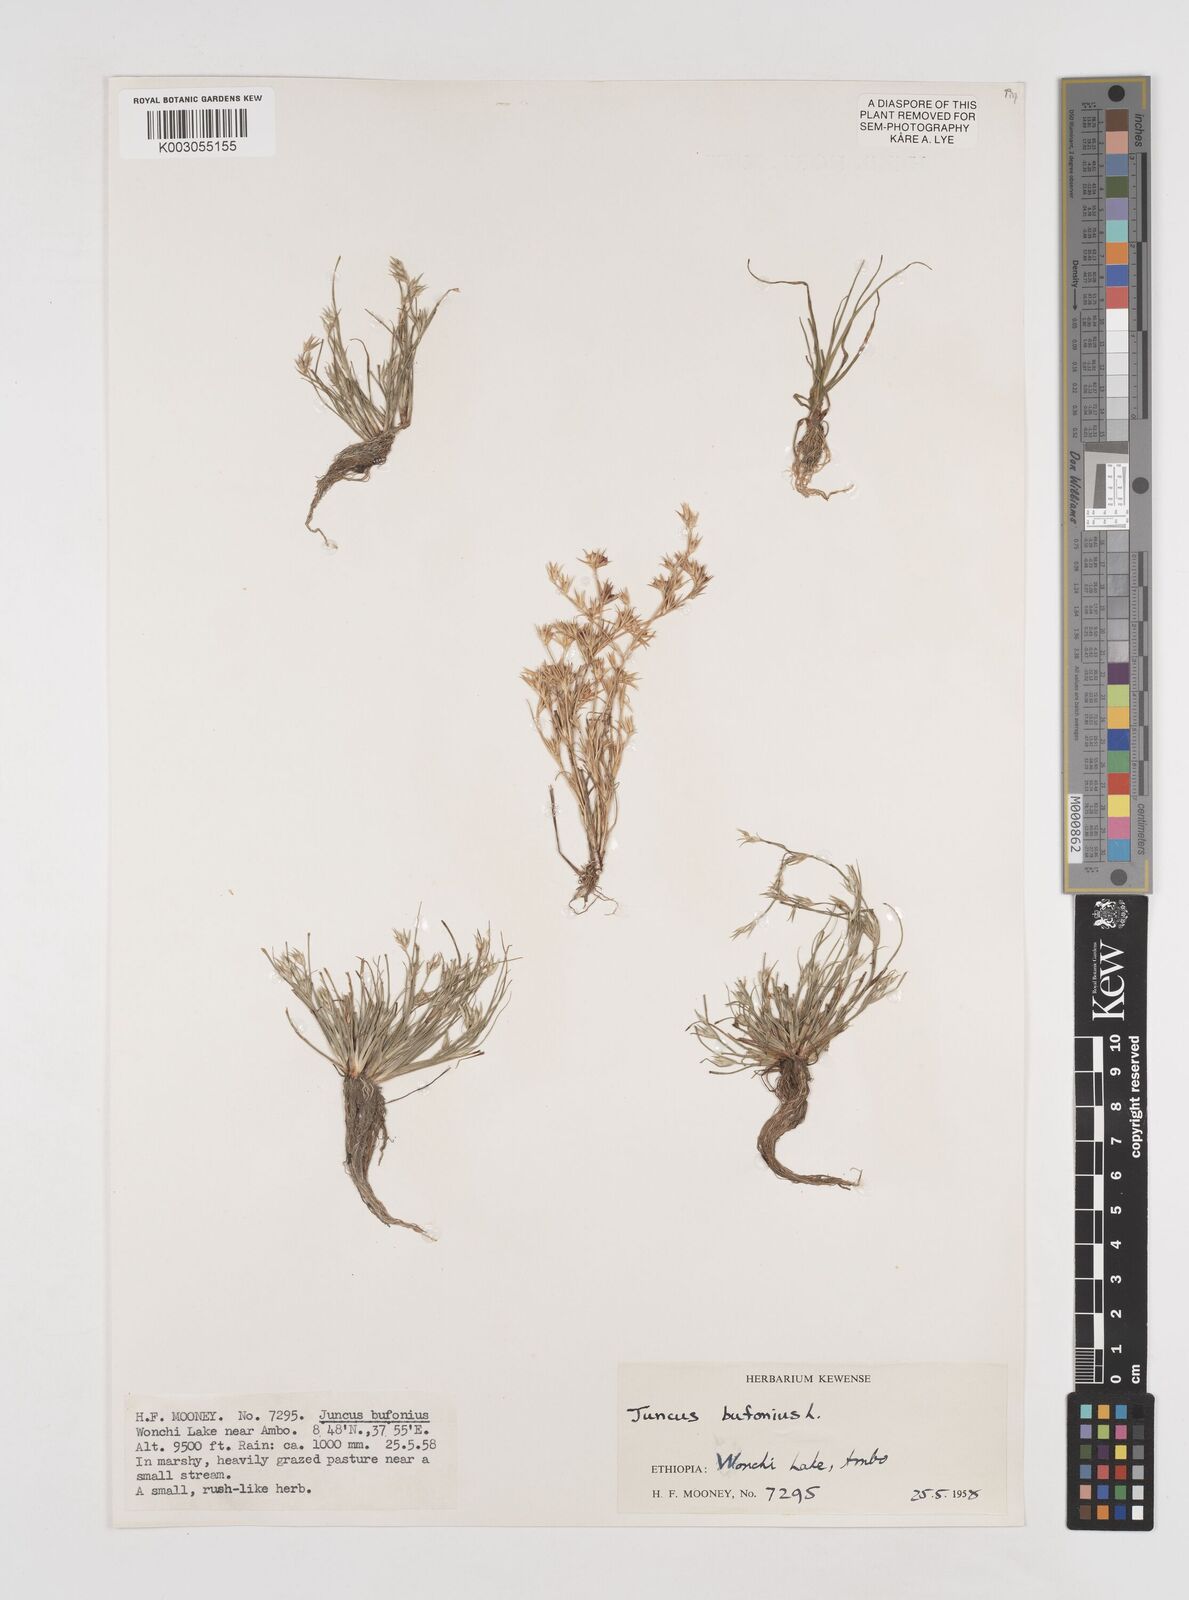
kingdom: Plantae
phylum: Tracheophyta
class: Liliopsida
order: Poales
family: Juncaceae
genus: Juncus
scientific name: Juncus bufonius
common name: Toad rush
